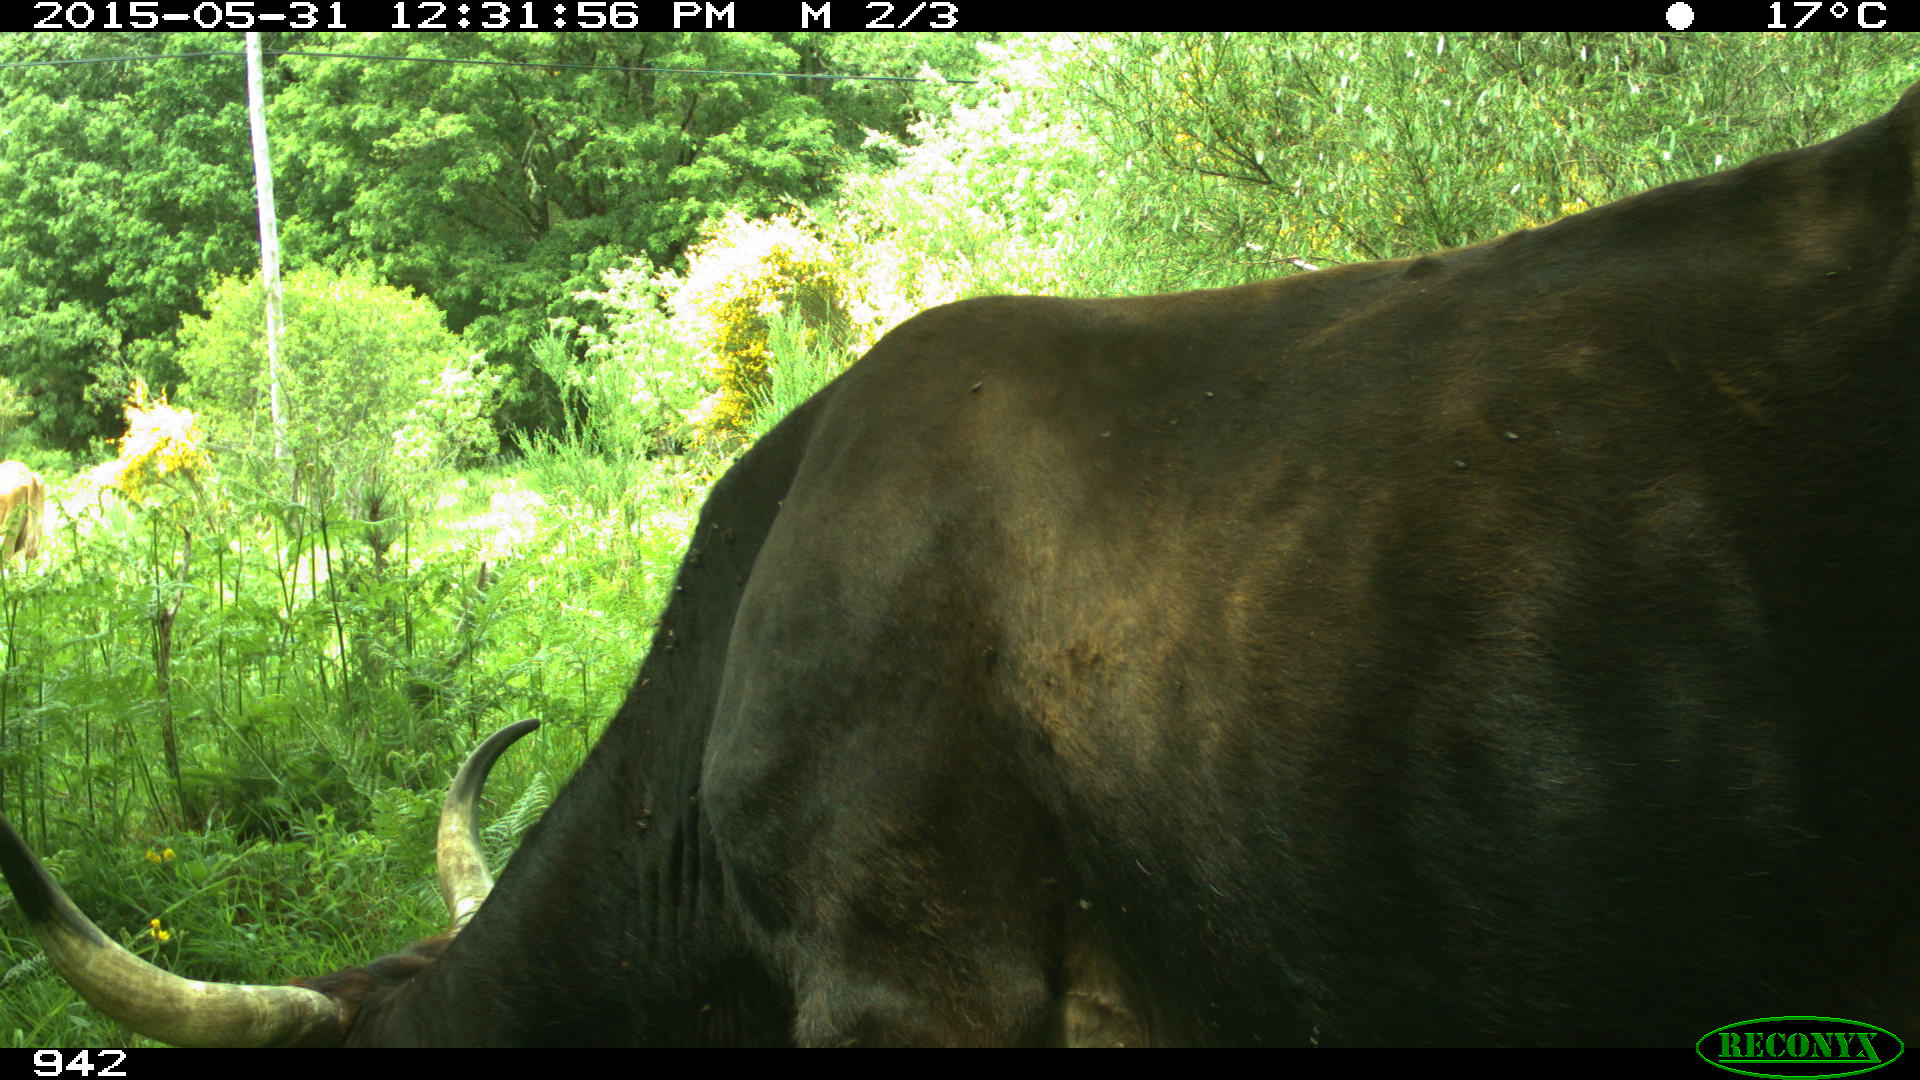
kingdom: Animalia
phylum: Chordata
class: Mammalia
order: Artiodactyla
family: Bovidae
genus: Bos
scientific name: Bos taurus
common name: Domesticated cattle
